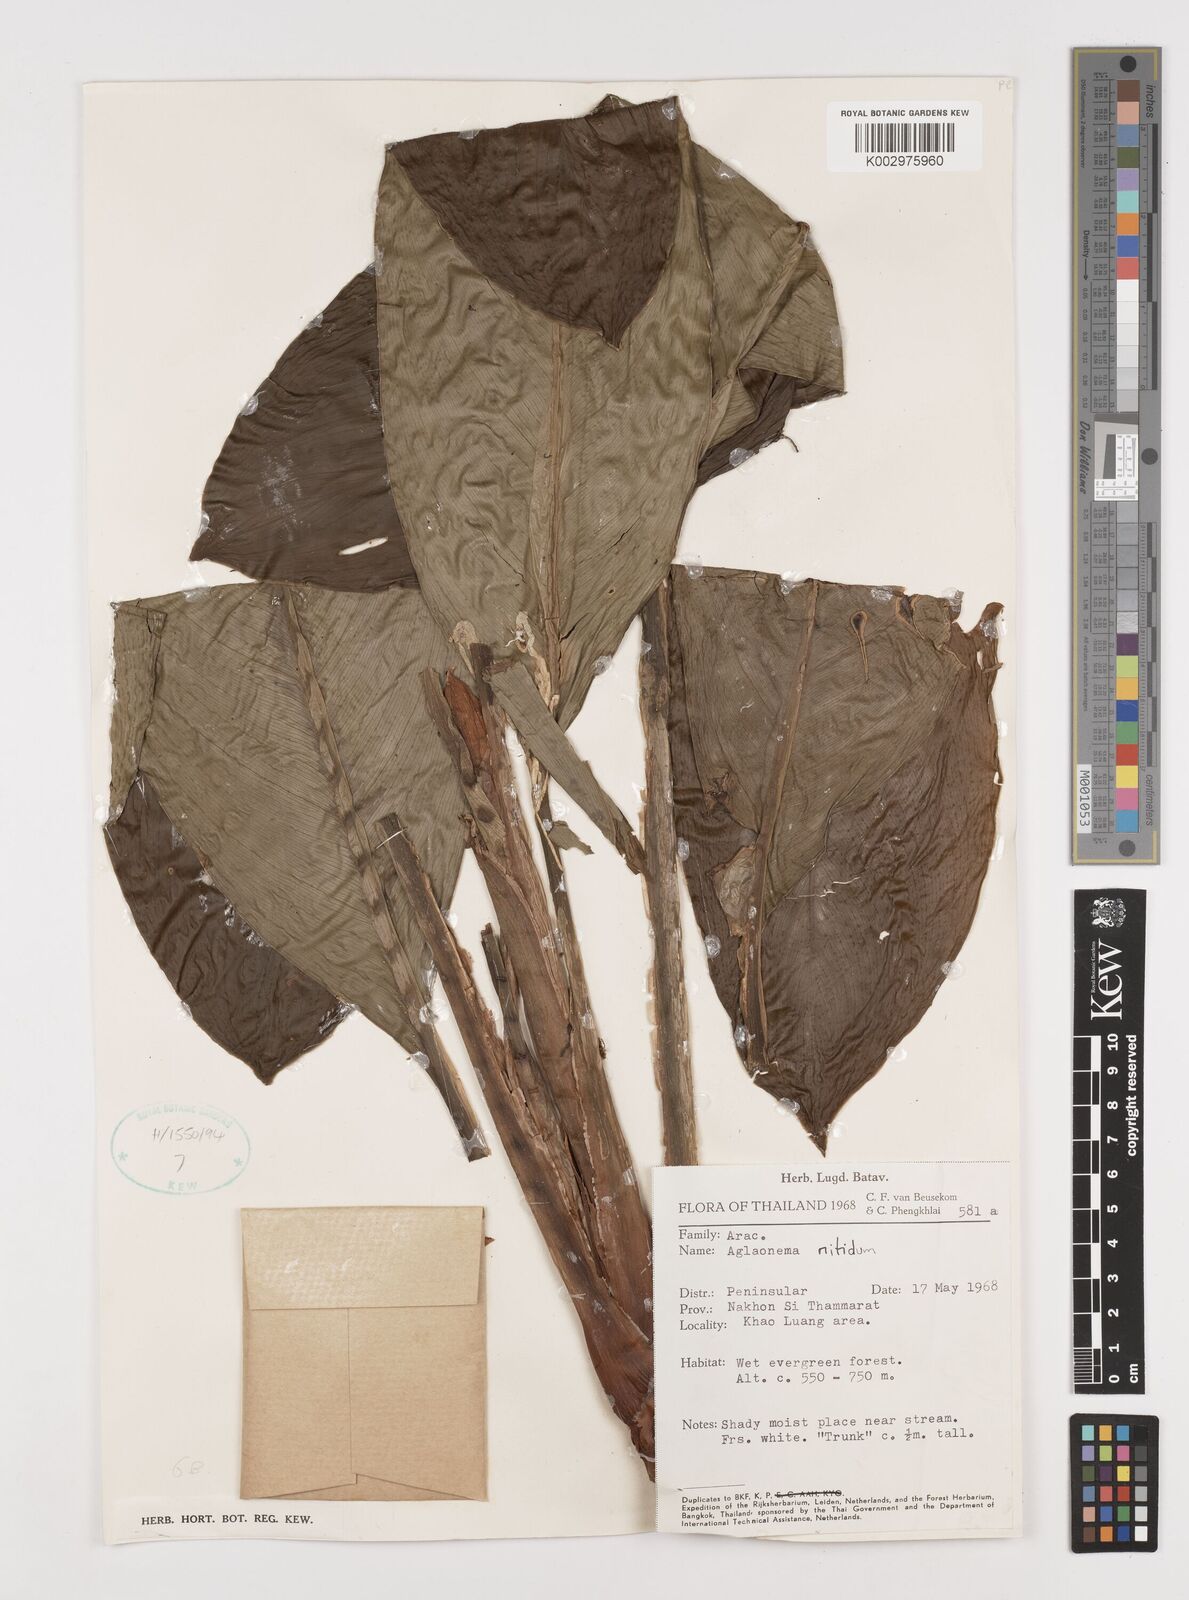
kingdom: Plantae
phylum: Tracheophyta
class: Liliopsida
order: Alismatales
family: Araceae
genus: Aglaonema
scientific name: Aglaonema nitidum
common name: Aglaonema aroid
